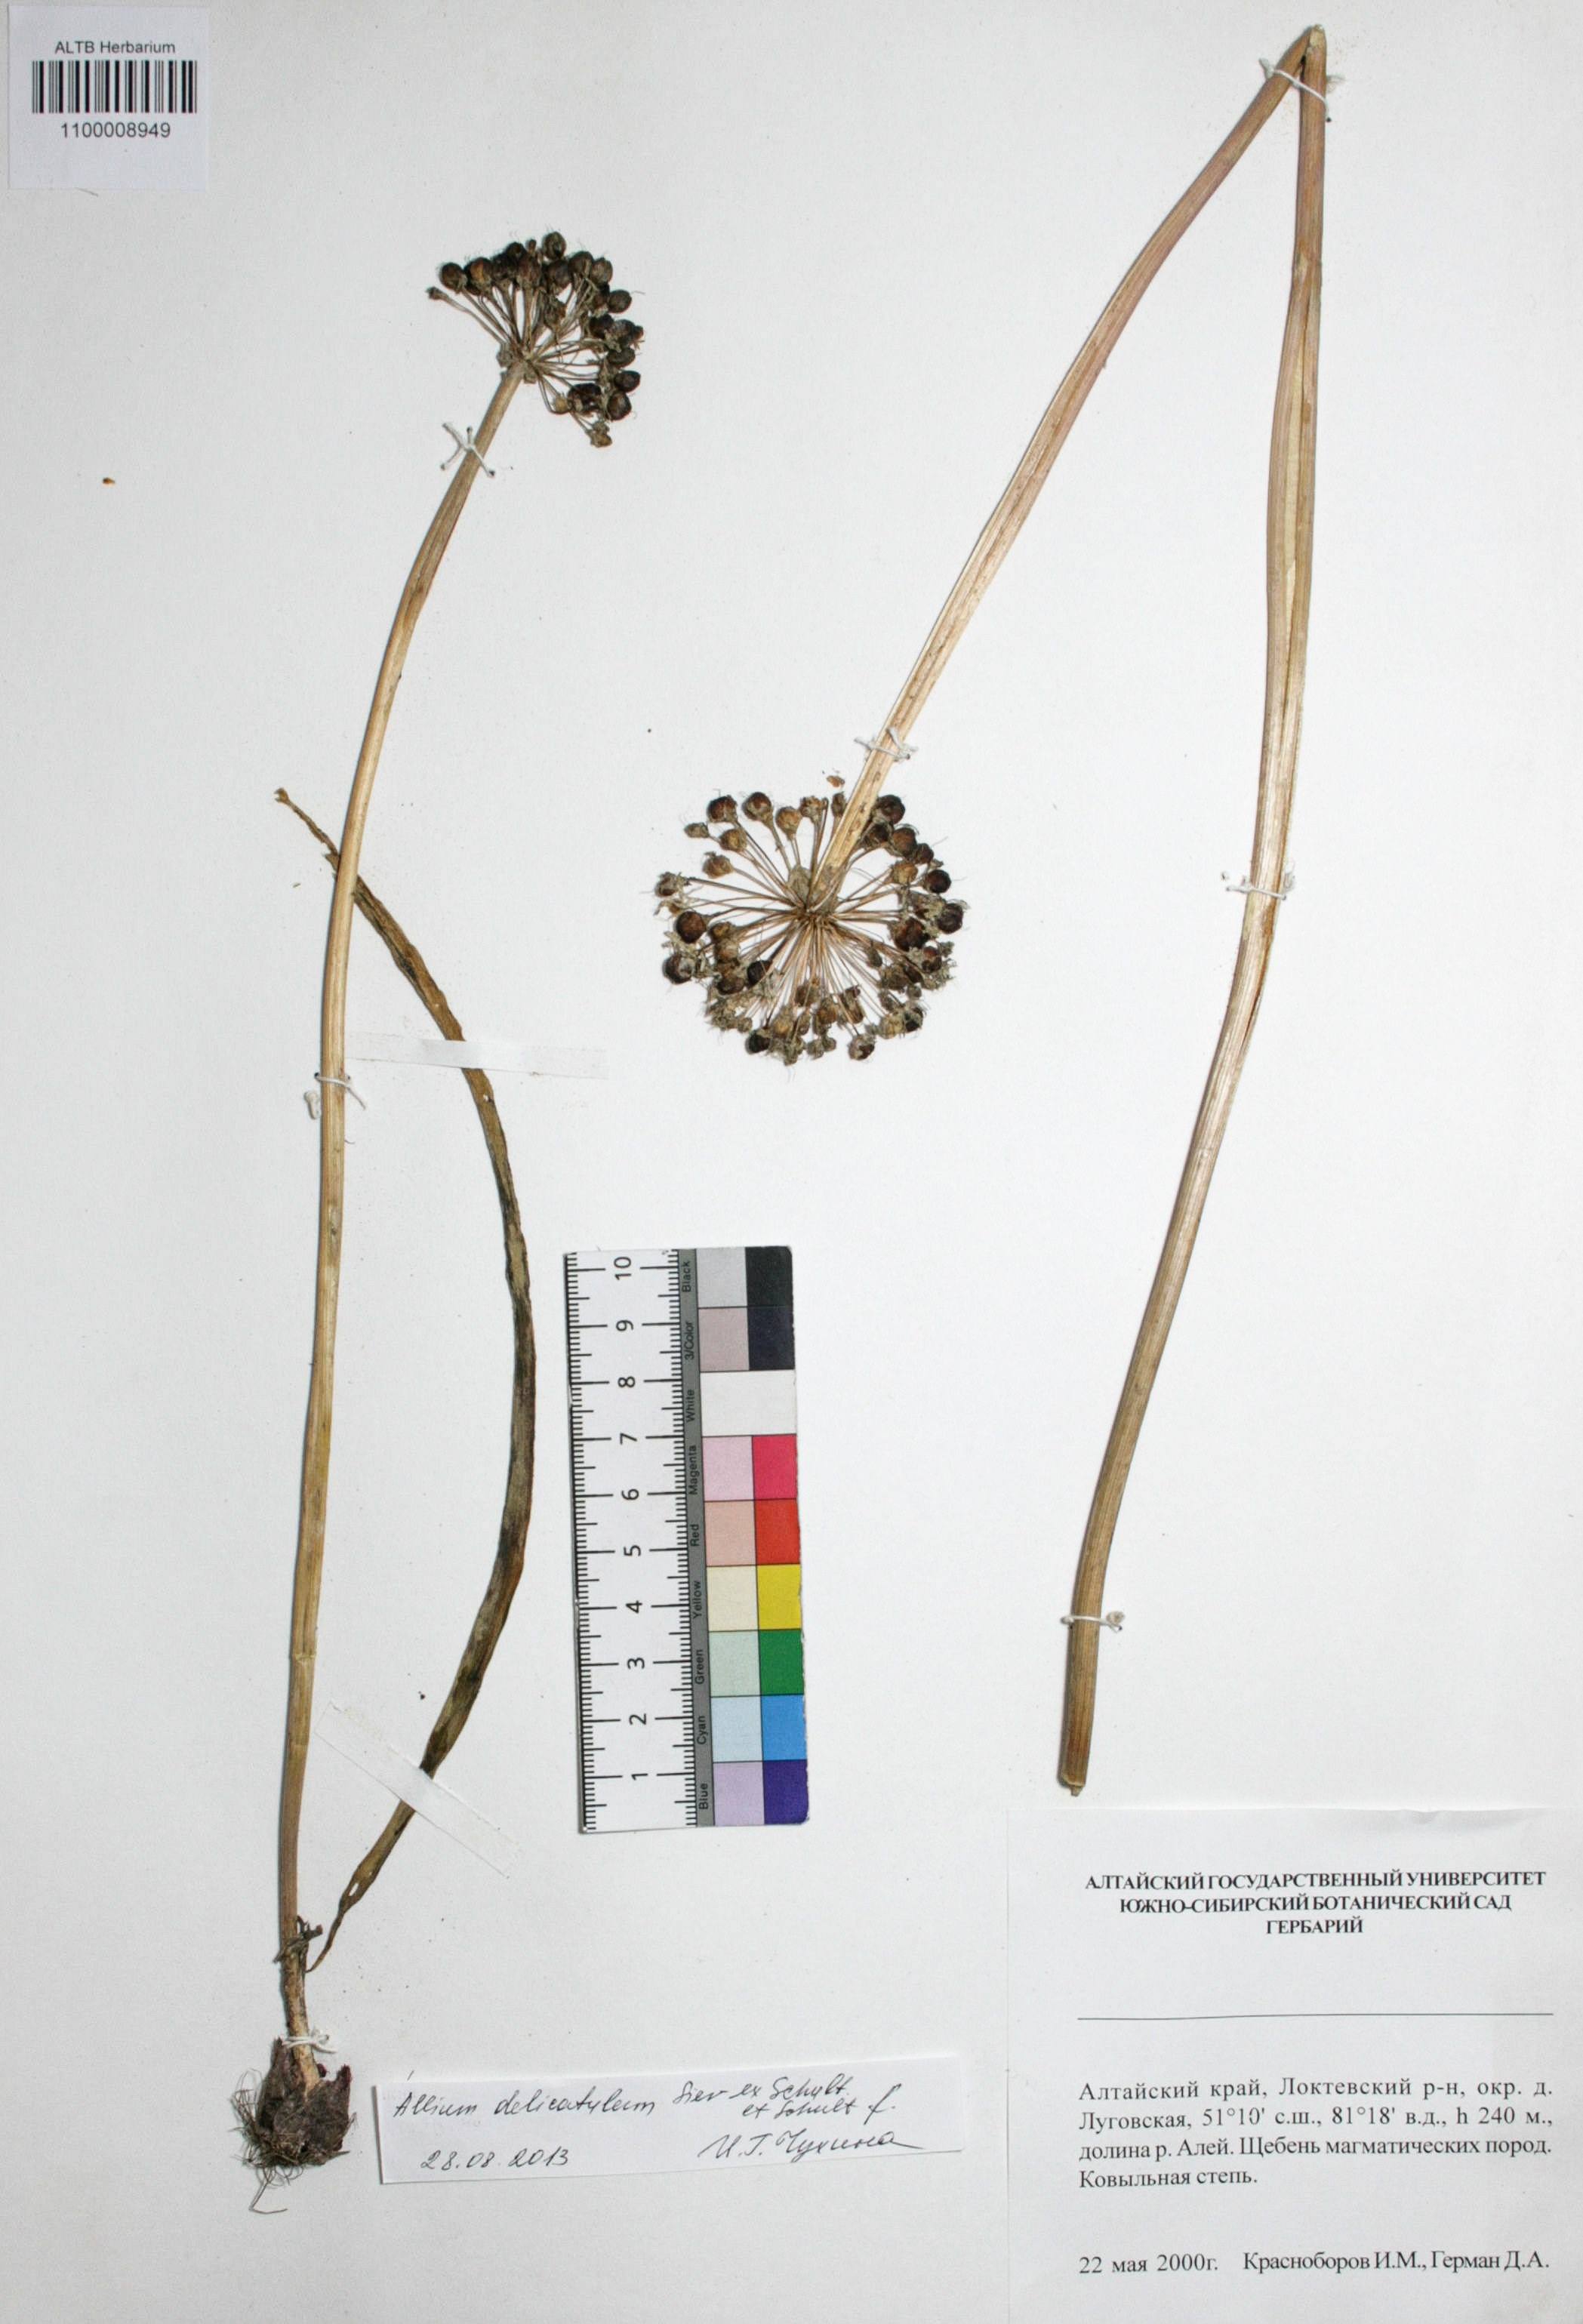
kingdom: Plantae
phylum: Tracheophyta
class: Liliopsida
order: Asparagales
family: Amaryllidaceae
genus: Allium
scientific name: Allium delicatulum
